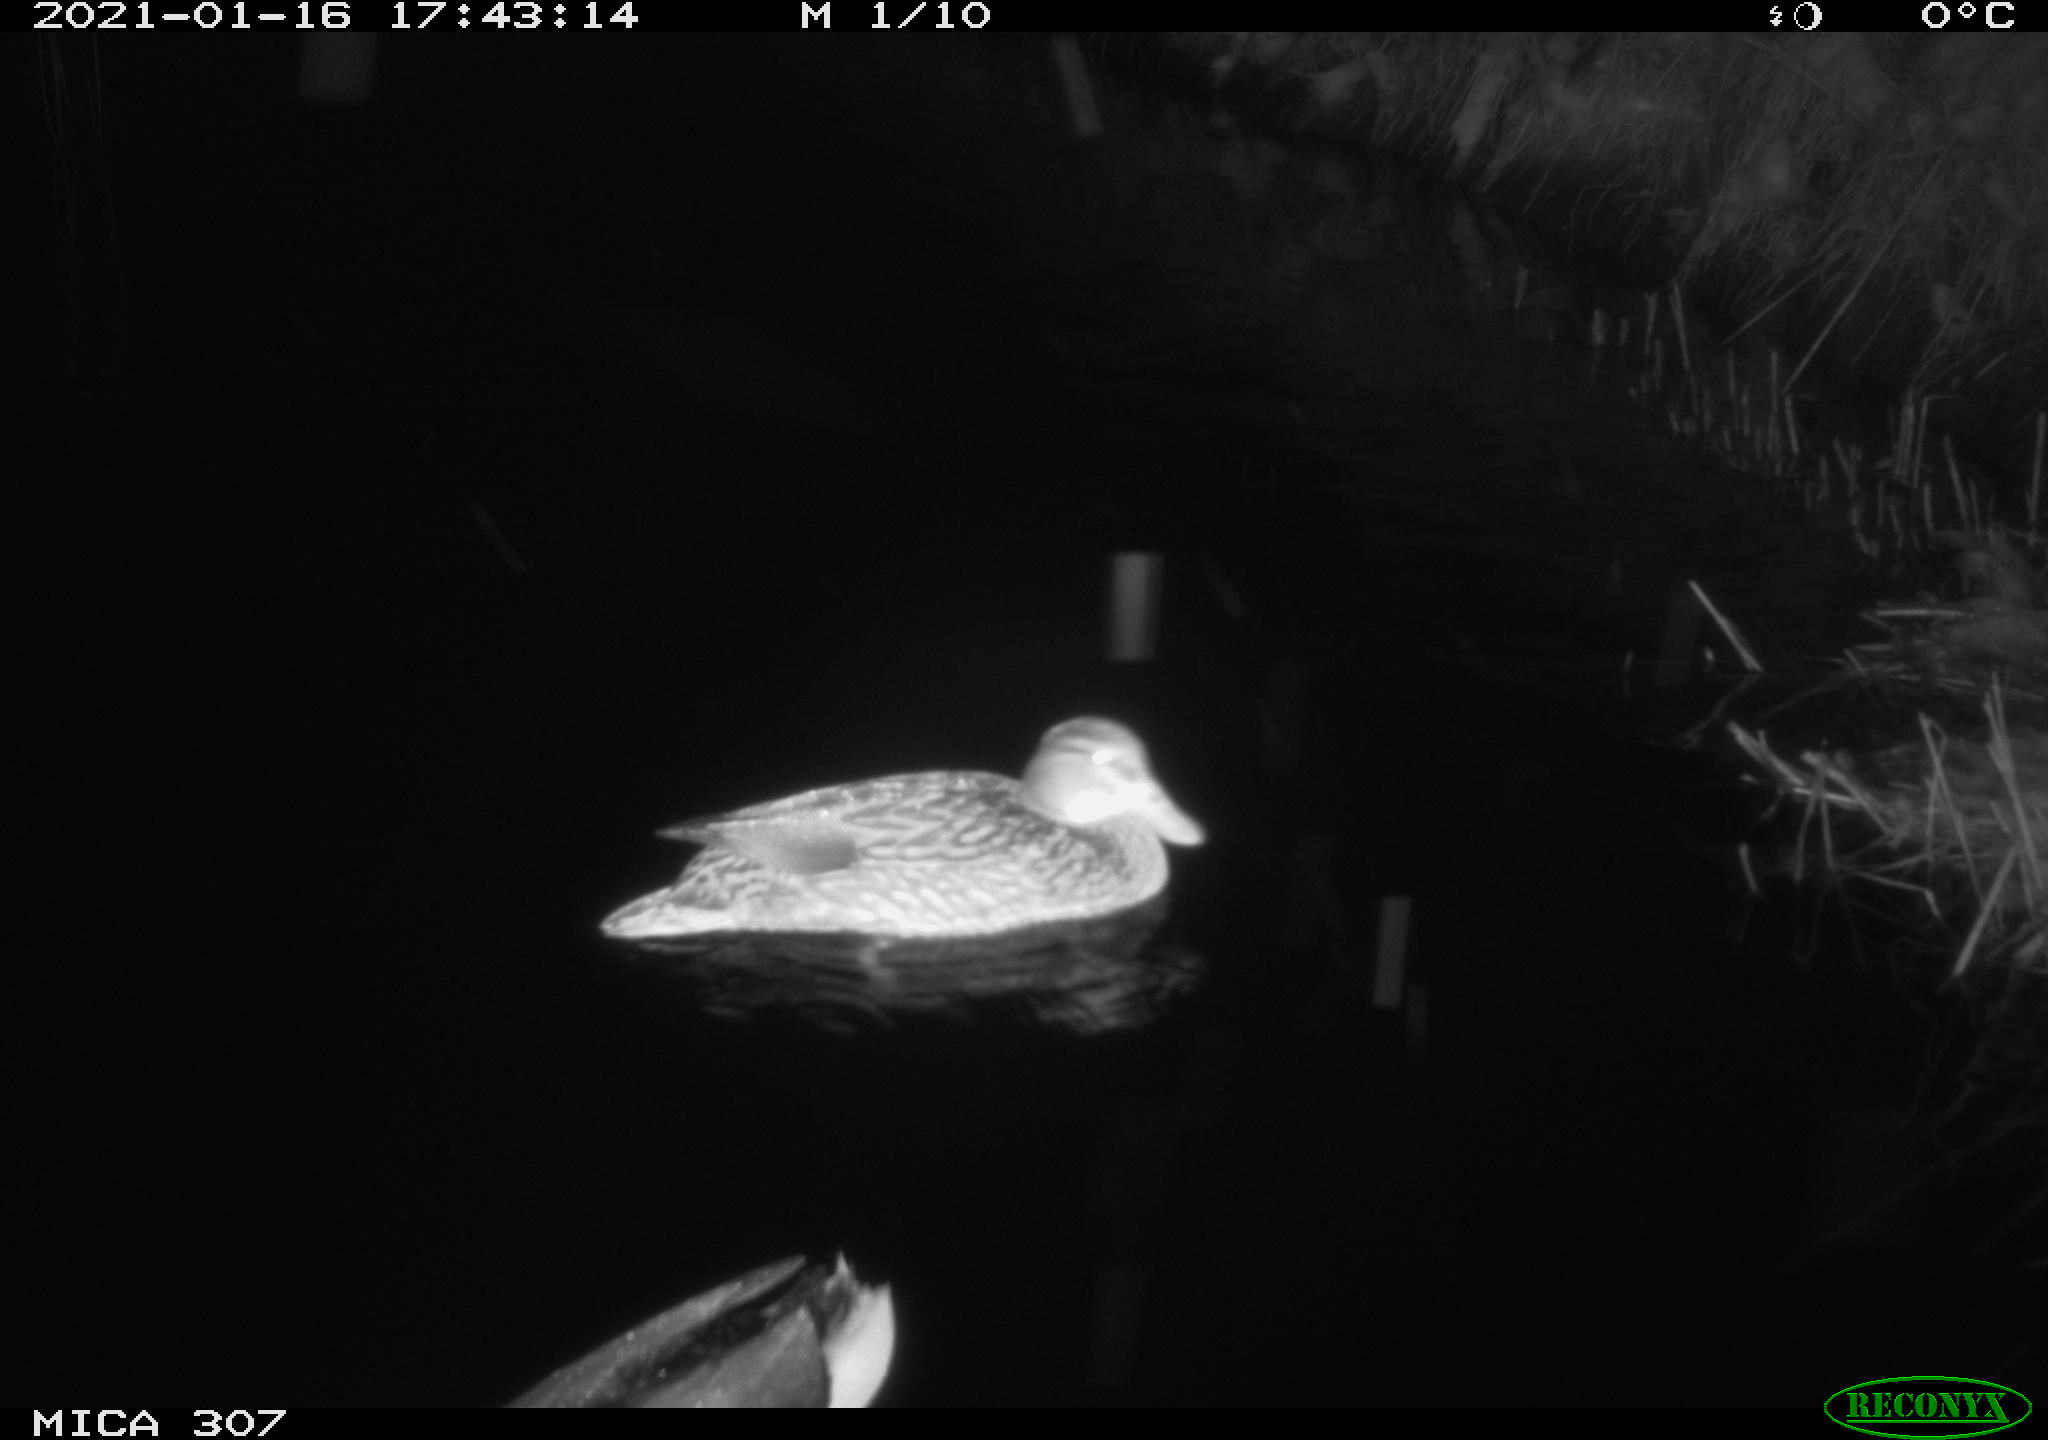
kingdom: Animalia
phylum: Chordata
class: Aves
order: Anseriformes
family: Anatidae
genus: Anas
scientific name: Anas platyrhynchos
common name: Mallard
